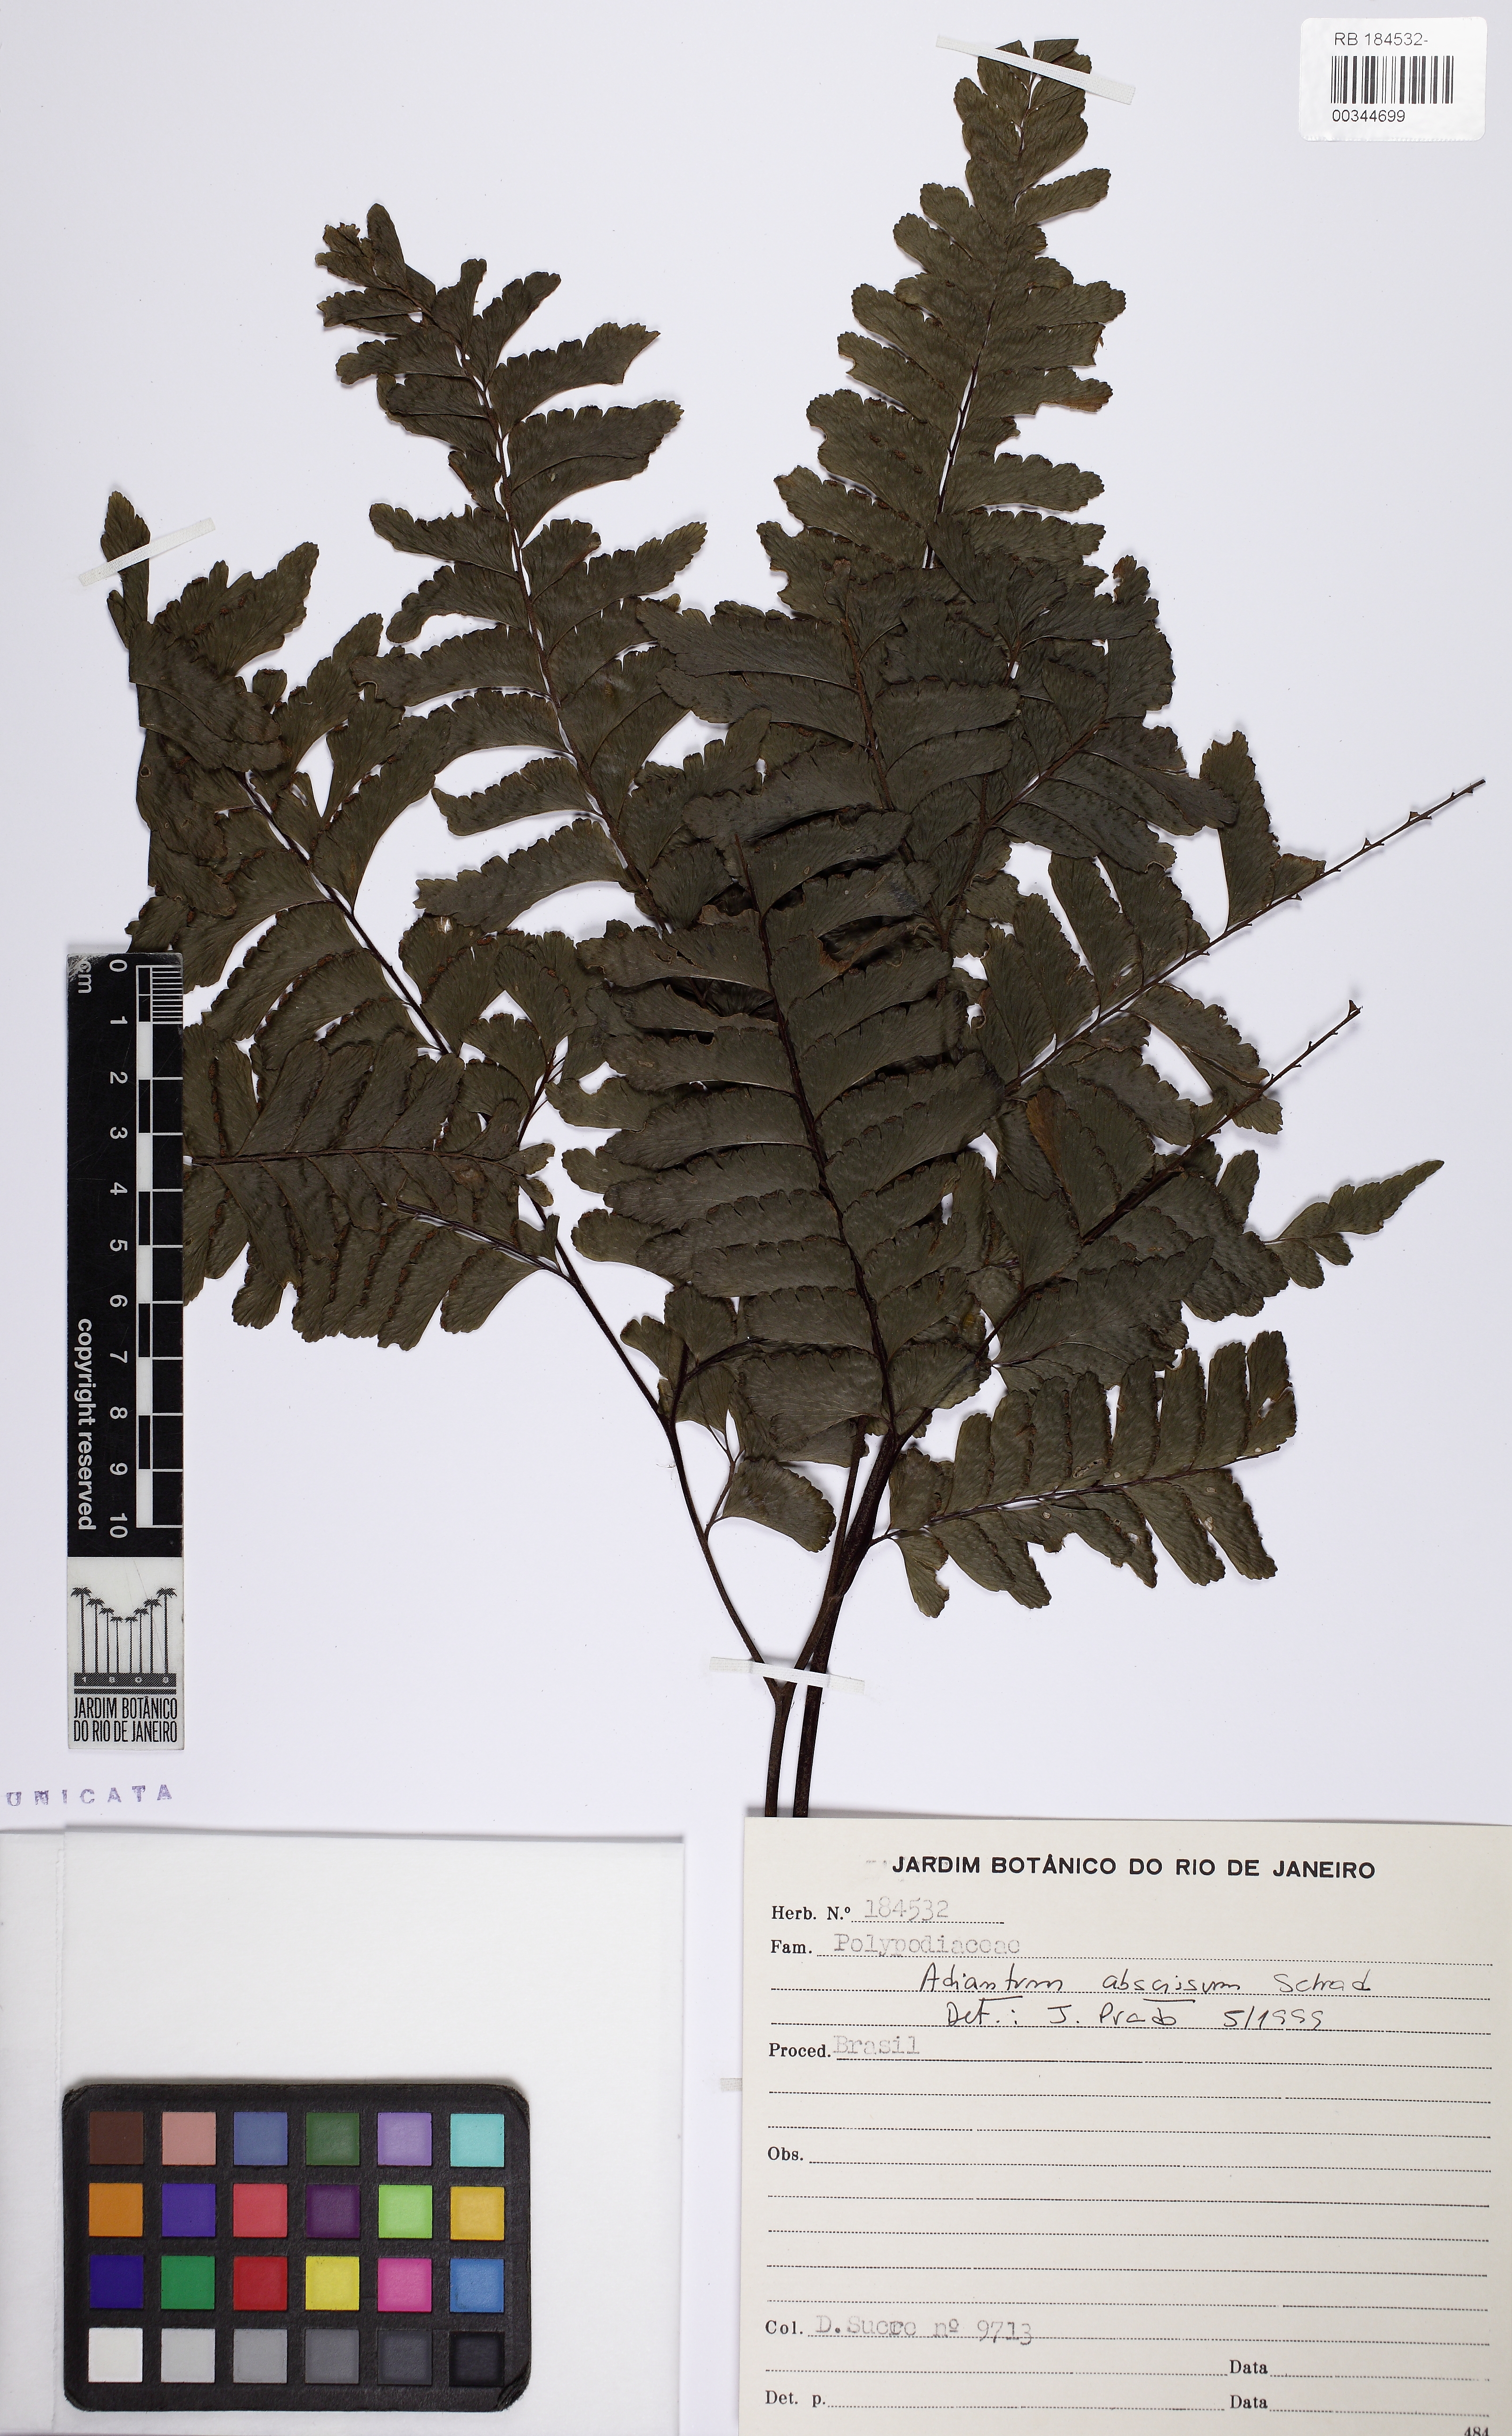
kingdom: Plantae
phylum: Tracheophyta
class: Polypodiopsida
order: Polypodiales
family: Pteridaceae
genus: Adiantum
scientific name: Adiantum abscissum
